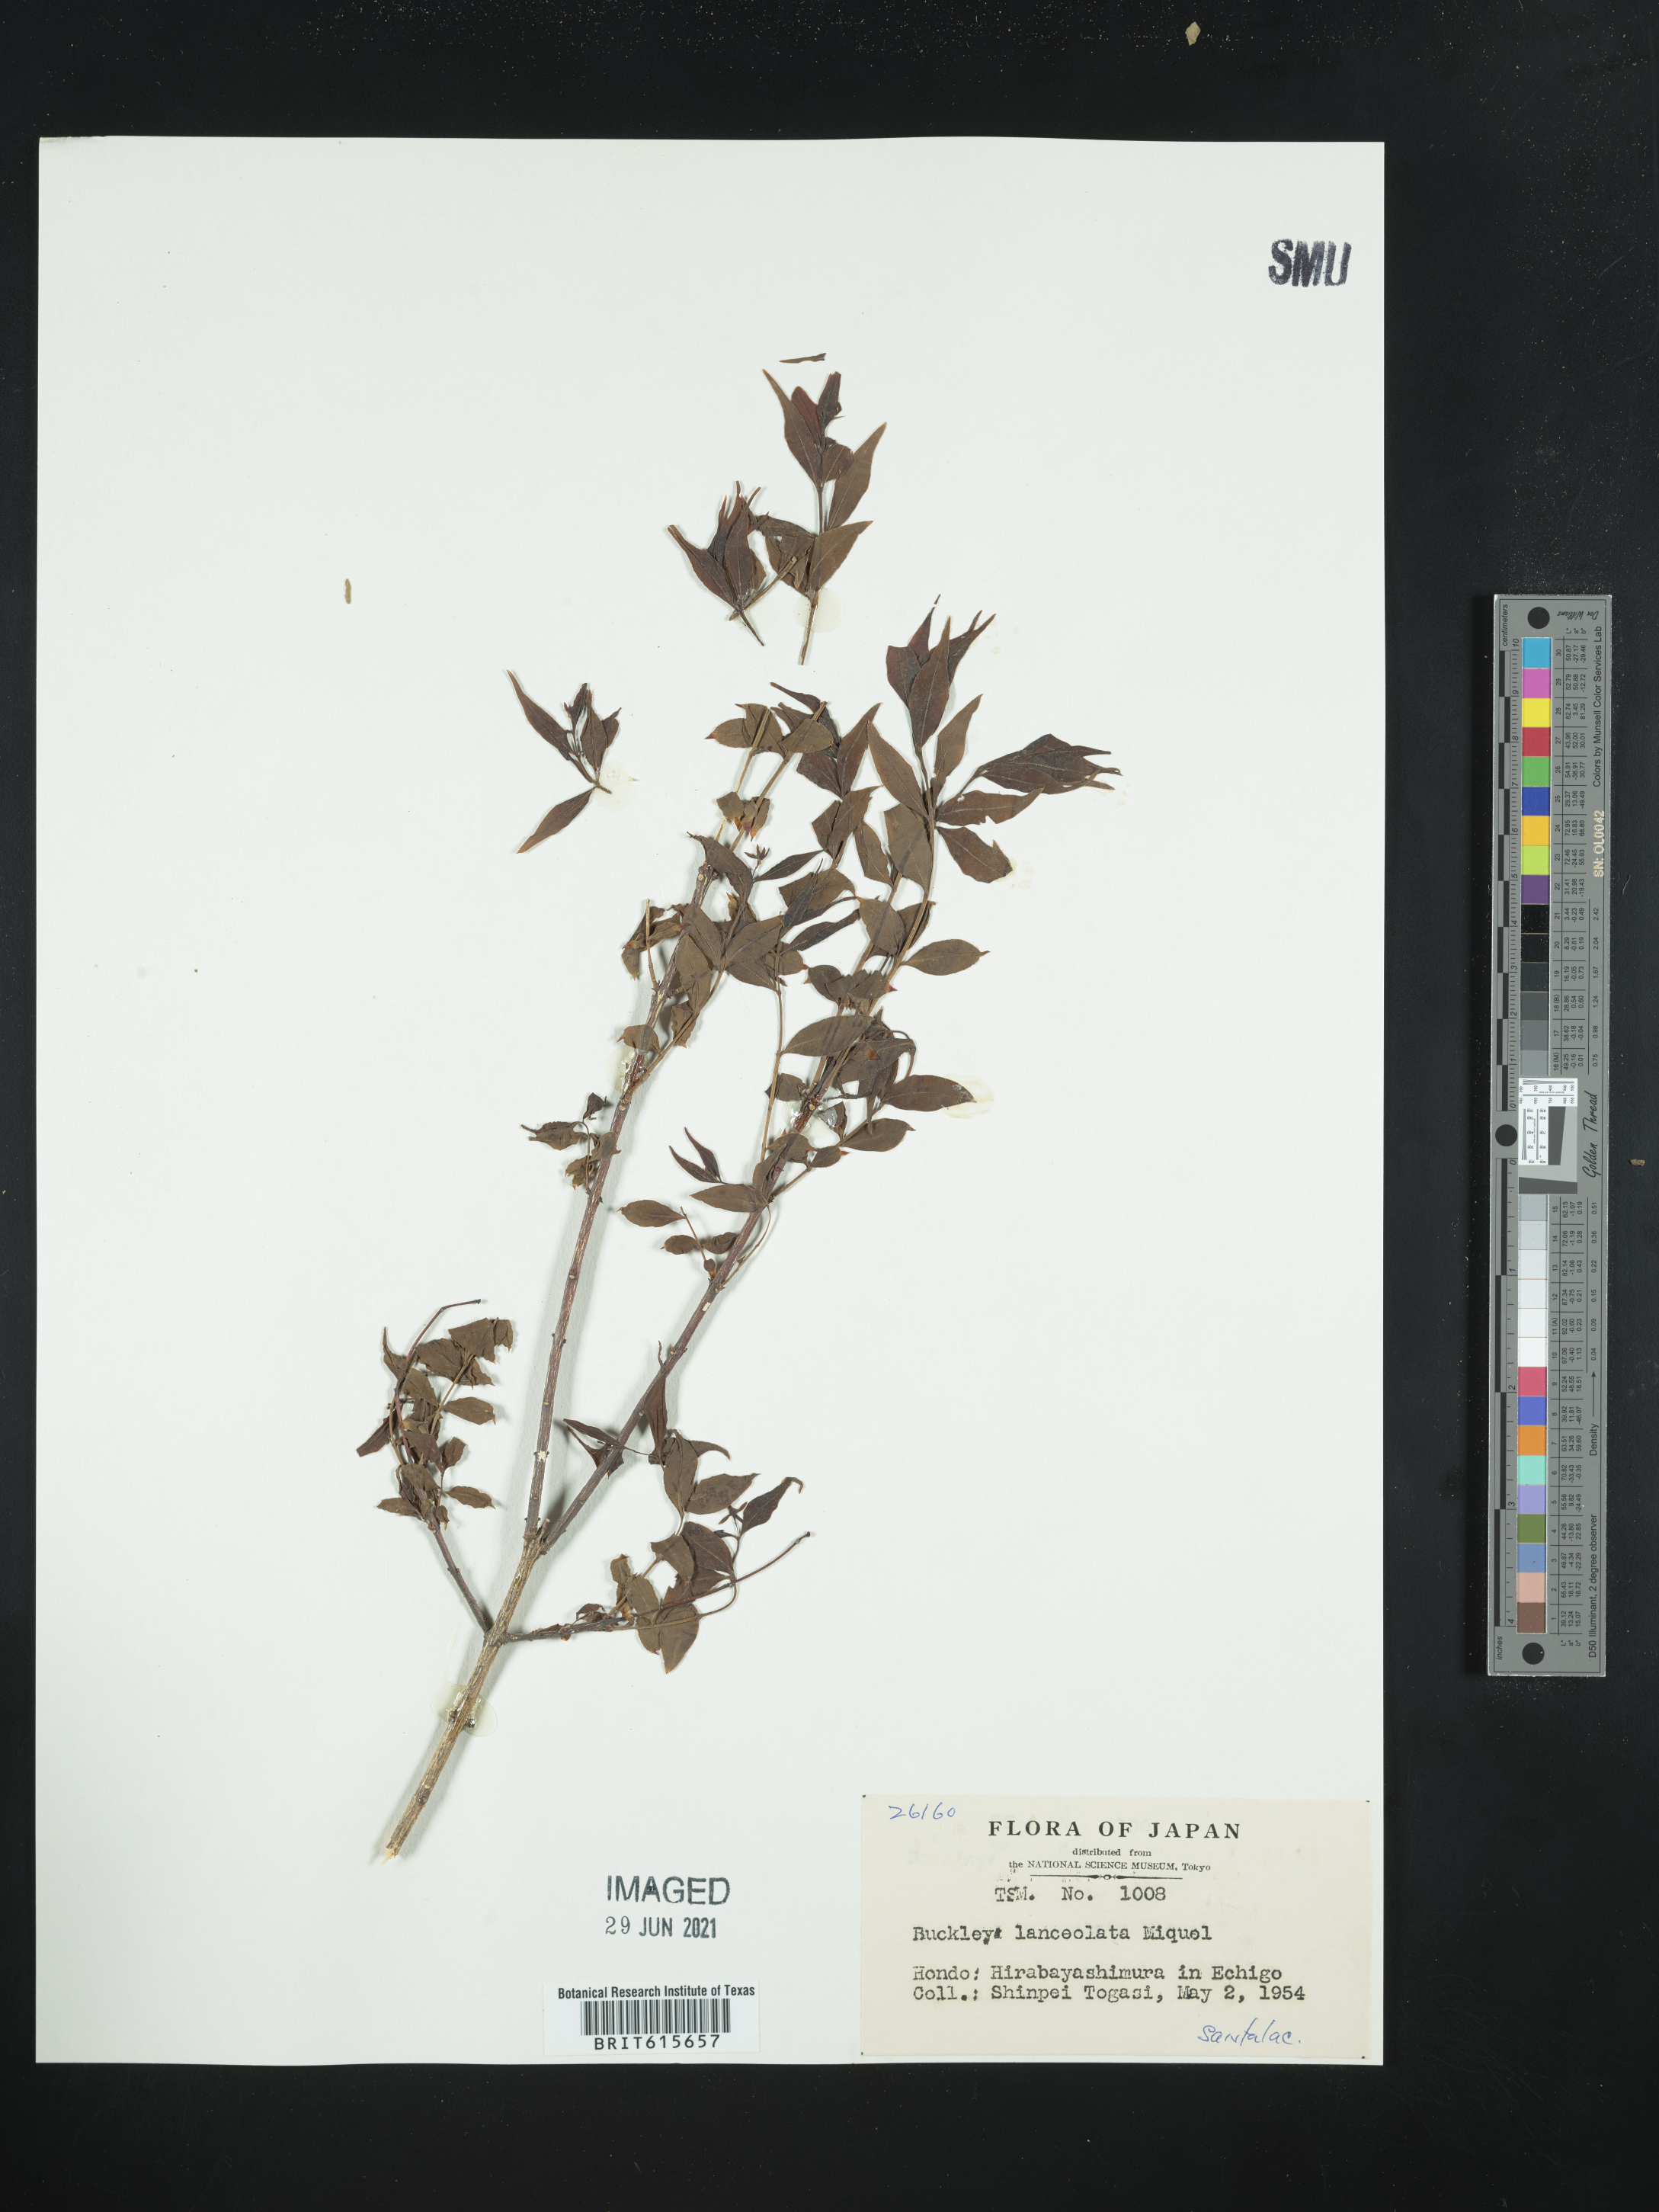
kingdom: Plantae
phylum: Tracheophyta
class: Magnoliopsida
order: Santalales
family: Thesiaceae
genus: Buckleya
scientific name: Buckleya lanceolata
